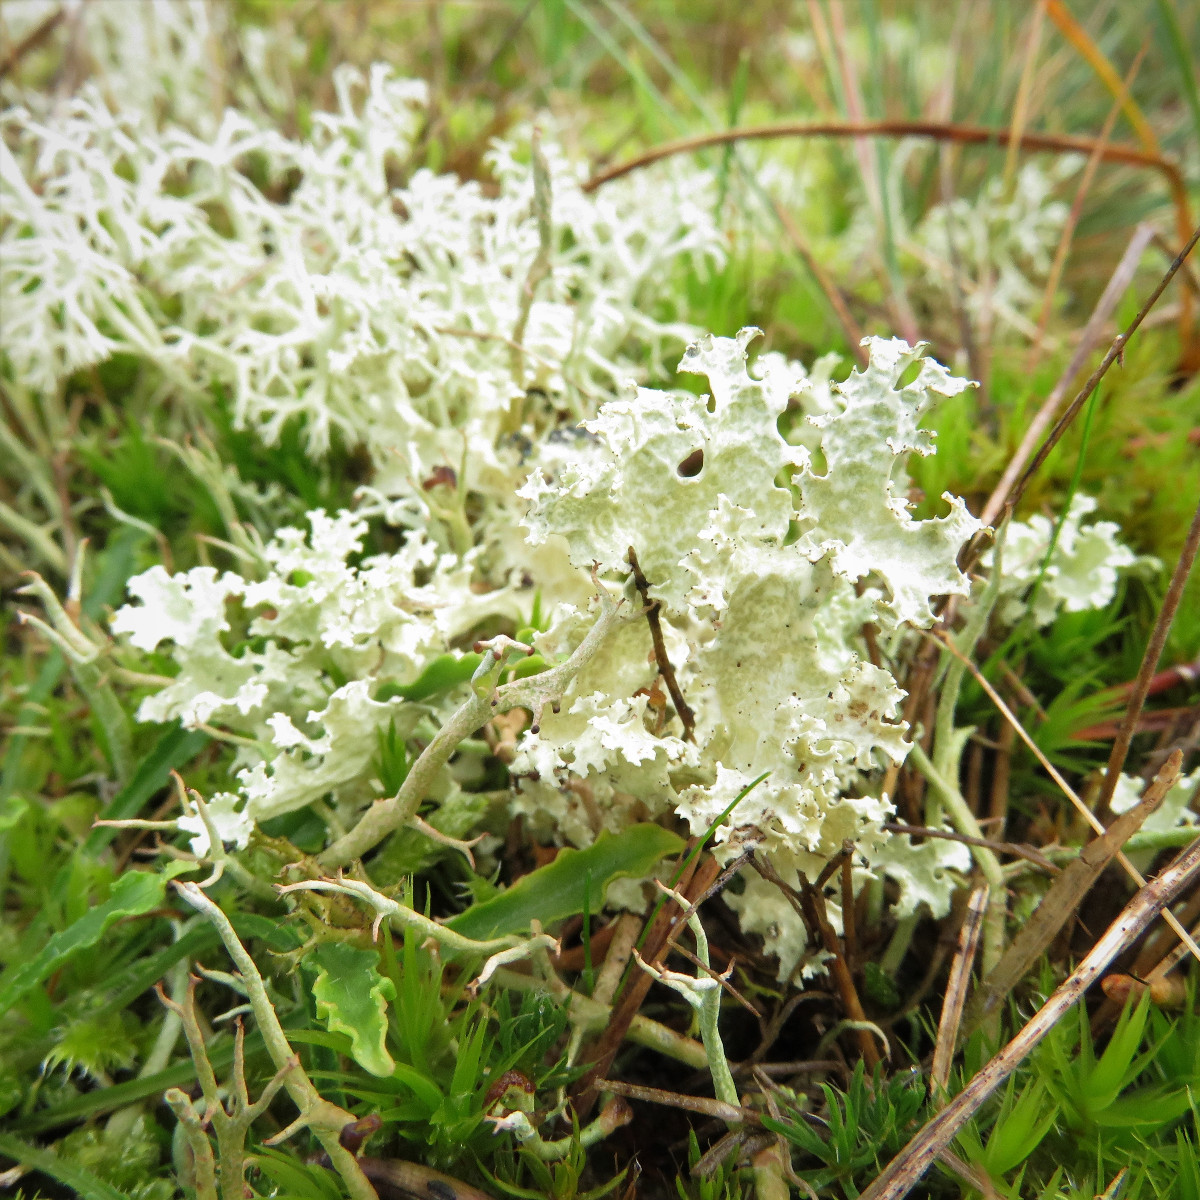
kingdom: Fungi
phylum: Ascomycota
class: Lecanoromycetes
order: Lecanorales
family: Parmeliaceae
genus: Nephromopsis
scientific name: Nephromopsis nivalis
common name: sne-kruslav
